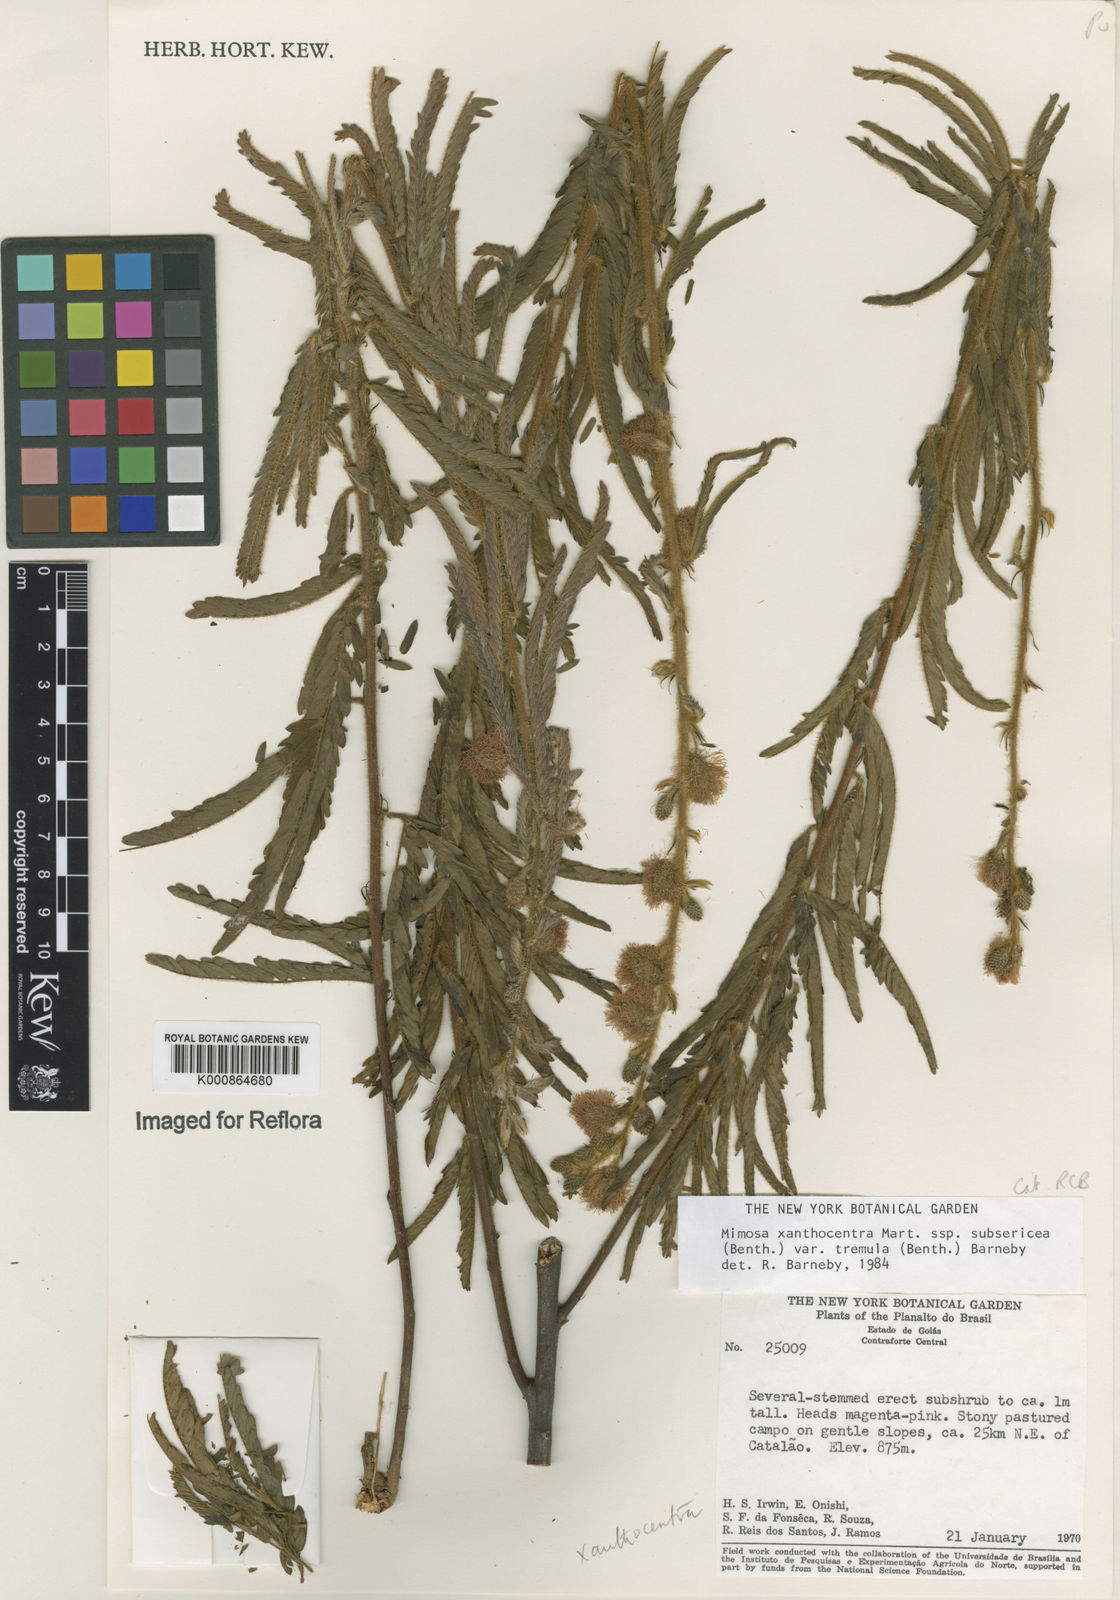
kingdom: Plantae
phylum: Tracheophyta
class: Magnoliopsida
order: Fabales
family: Fabaceae
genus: Mimosa
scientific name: Mimosa xanthocentra
